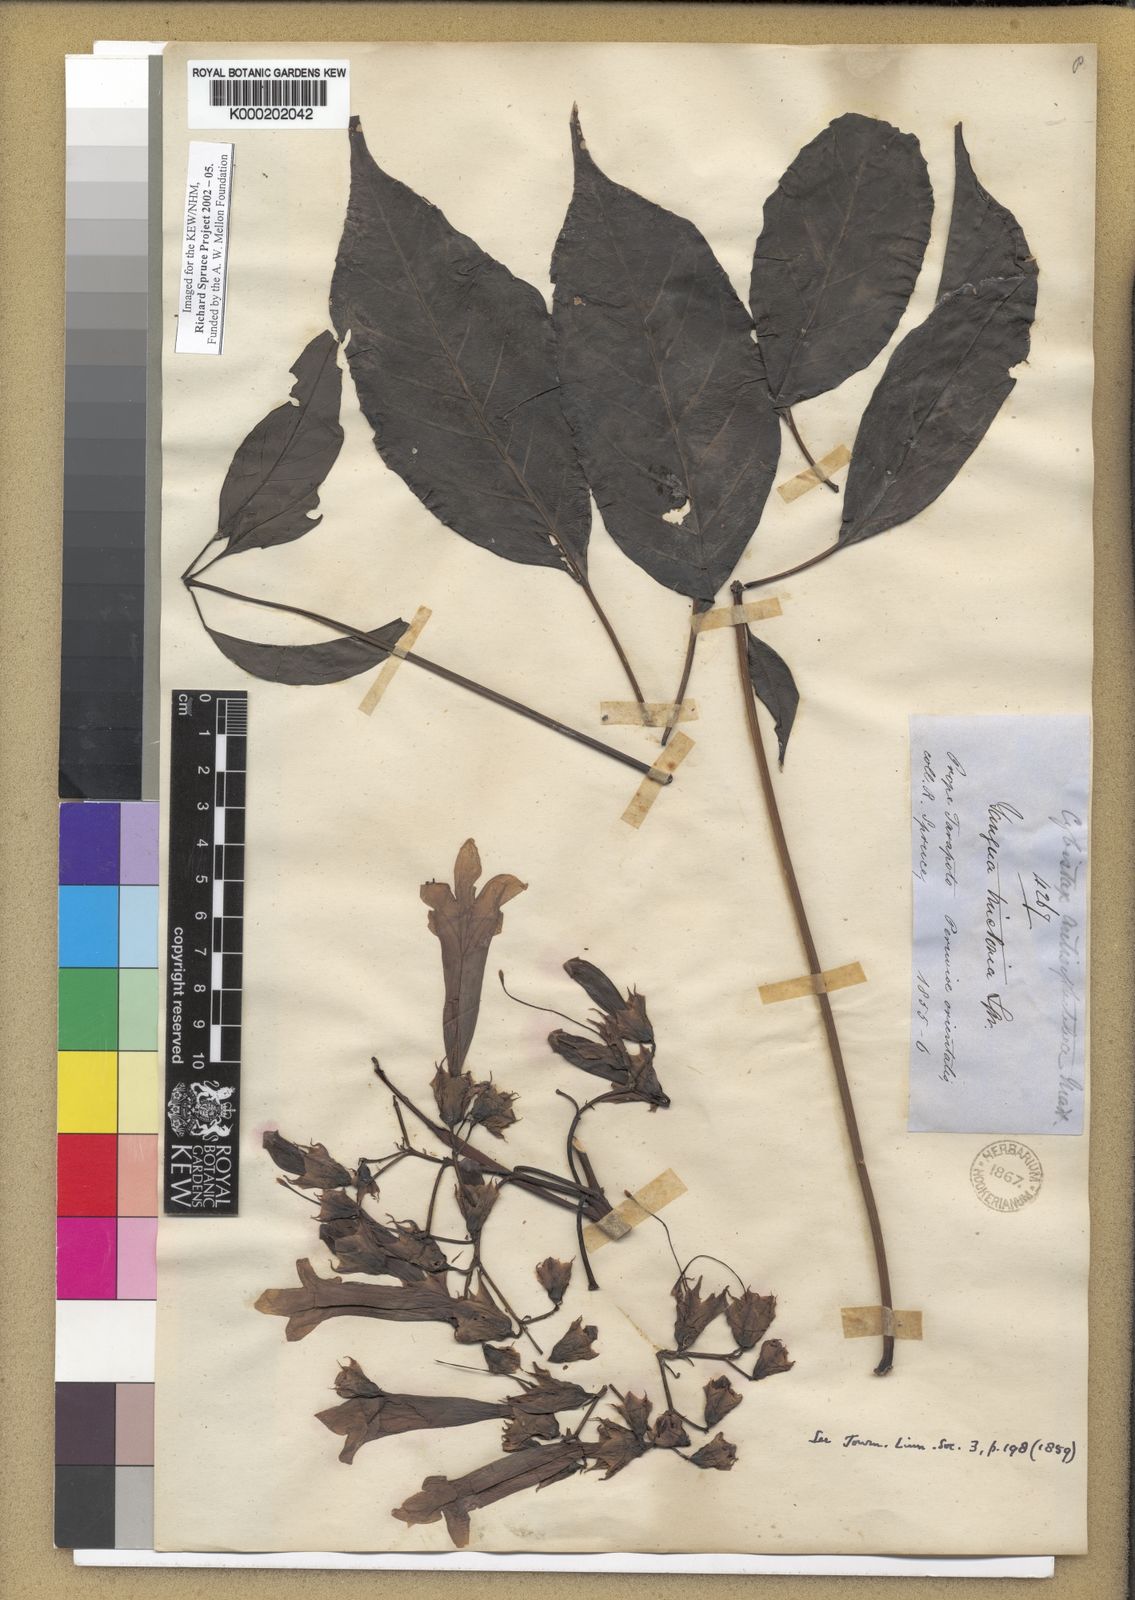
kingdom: Plantae
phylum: Tracheophyta
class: Magnoliopsida
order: Lamiales
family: Bignoniaceae
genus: Cybistax
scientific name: Cybistax antisyphilitica
